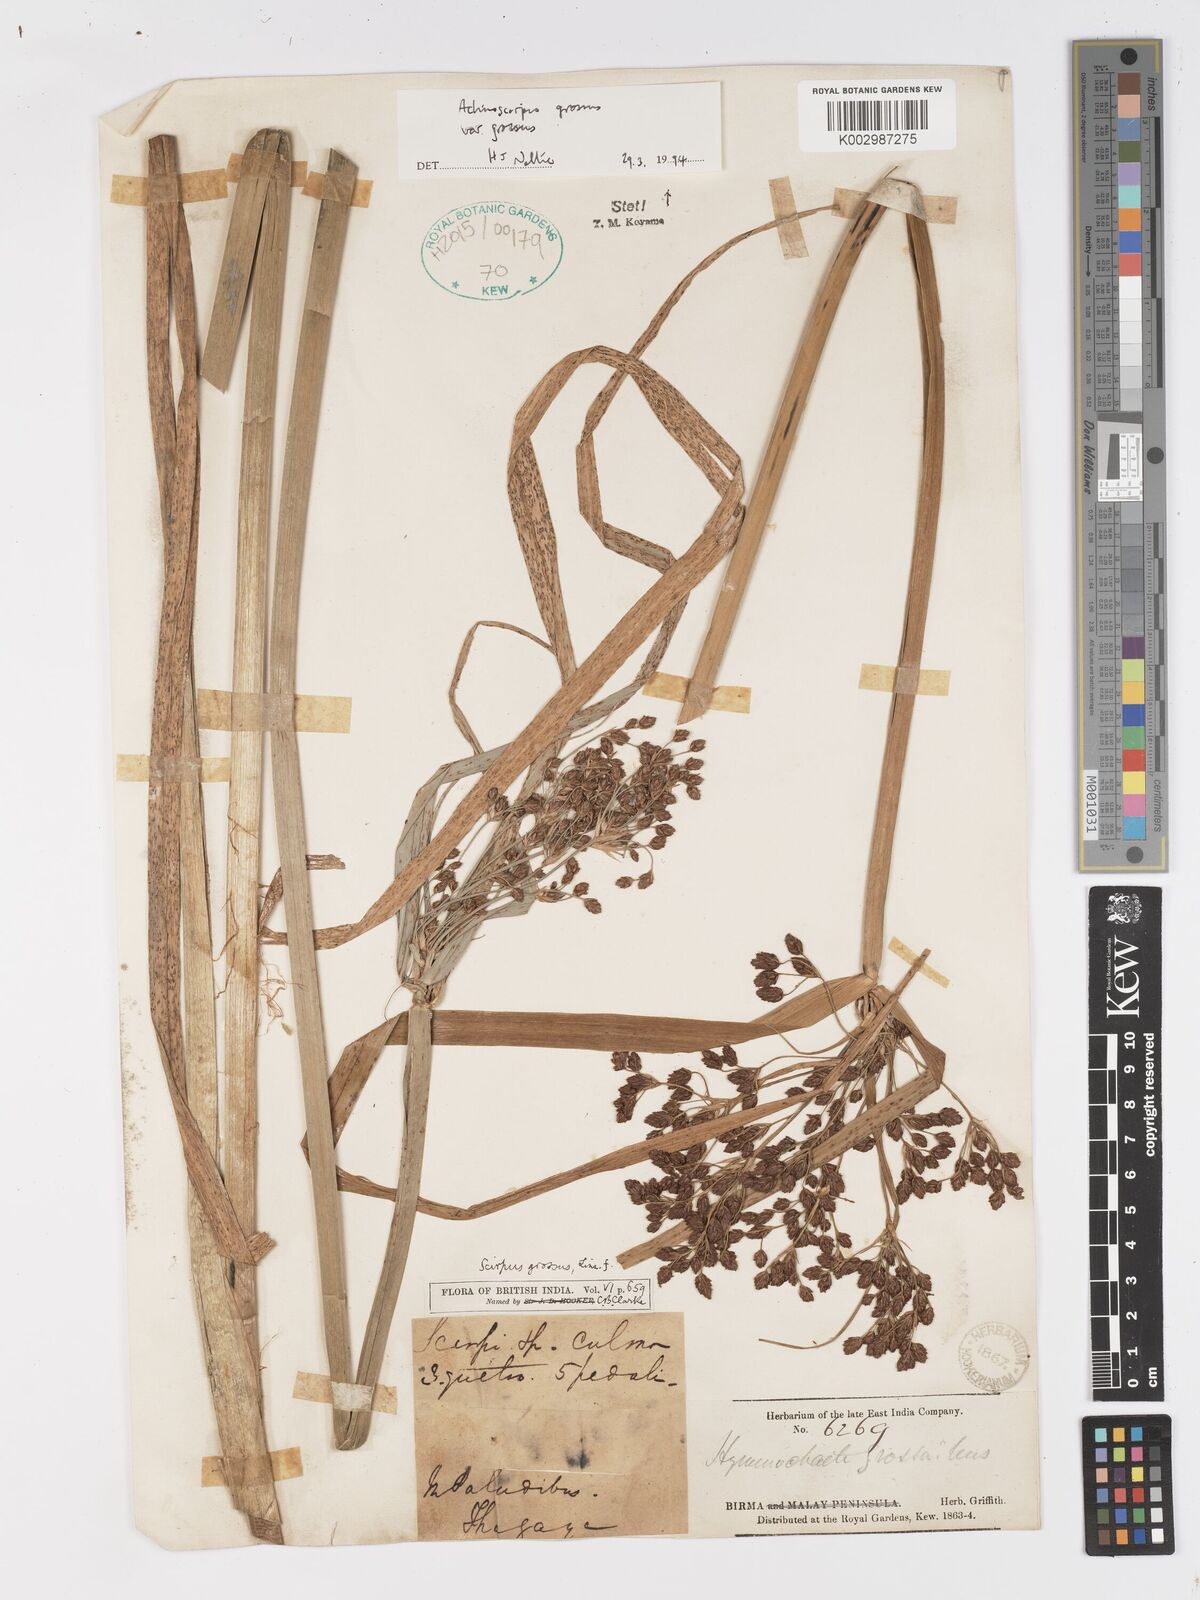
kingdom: Plantae
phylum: Tracheophyta
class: Liliopsida
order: Poales
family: Cyperaceae
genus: Actinoscirpus
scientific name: Actinoscirpus grossus
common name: Giant bur rush
